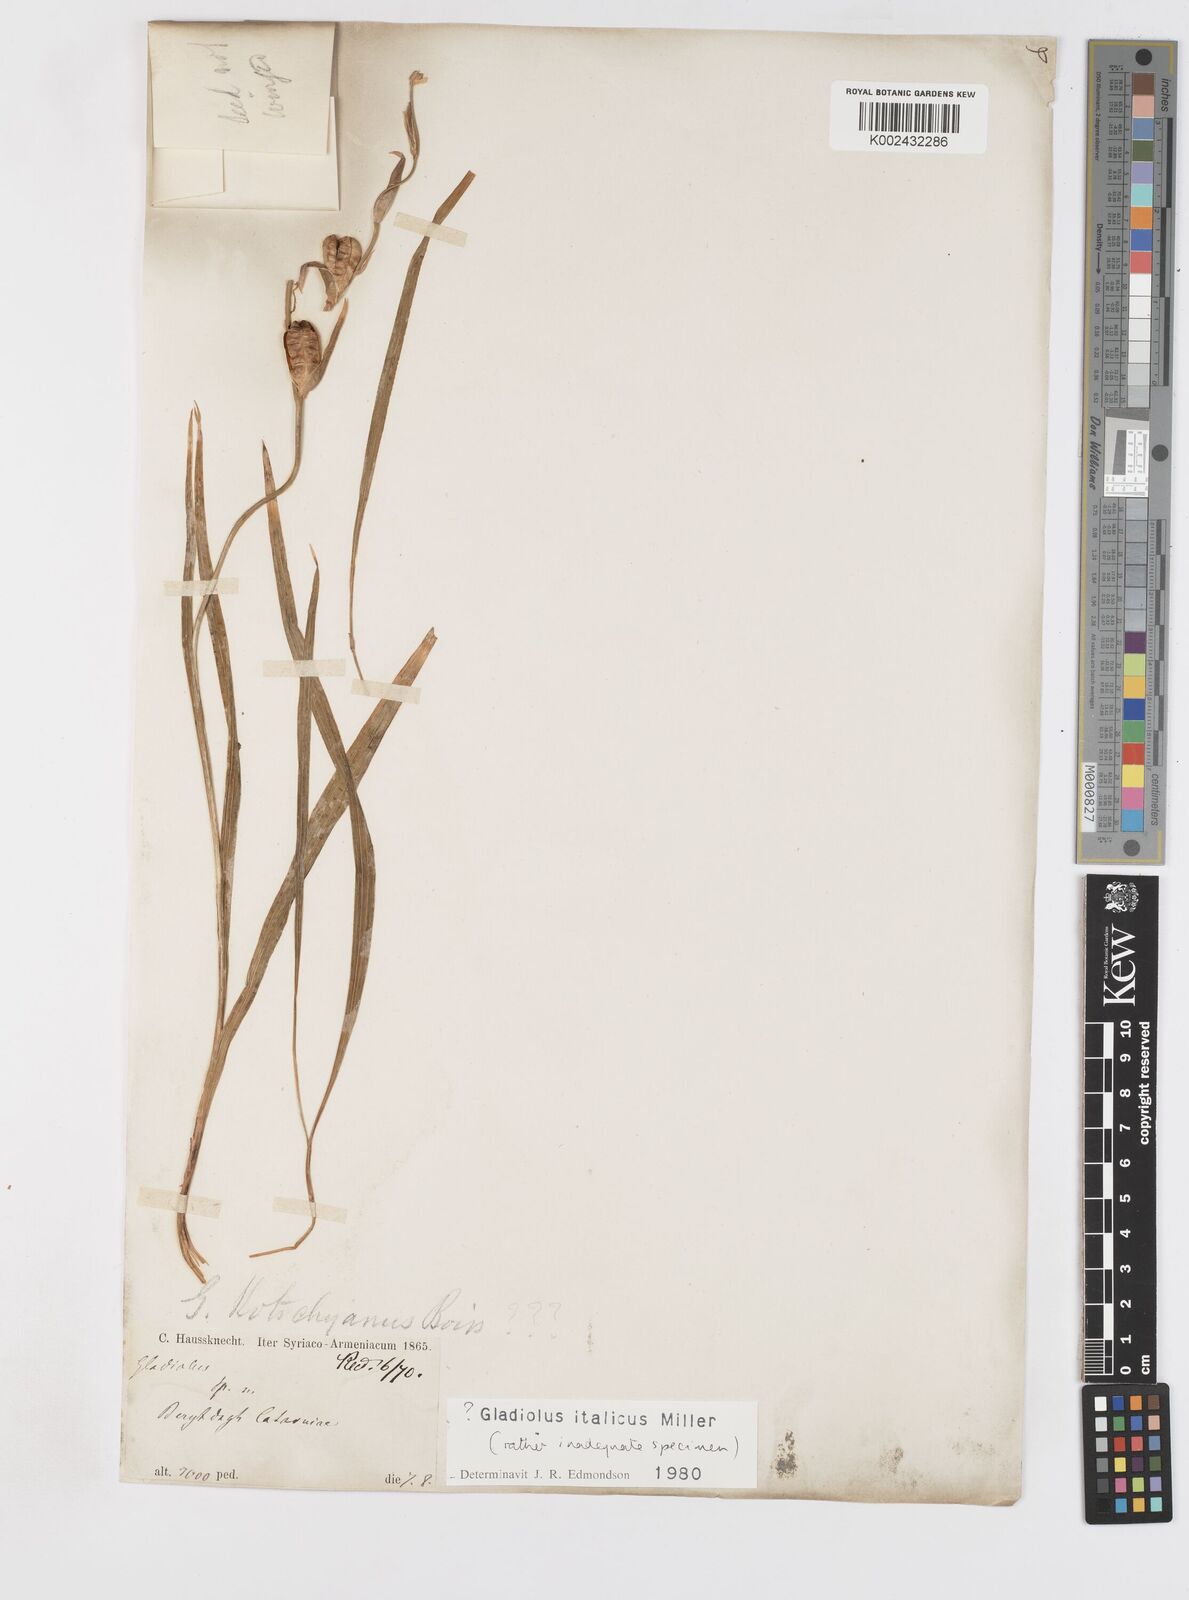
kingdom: Plantae
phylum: Tracheophyta
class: Liliopsida
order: Asparagales
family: Iridaceae
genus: Gladiolus
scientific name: Gladiolus italicus
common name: Field gladiolus
